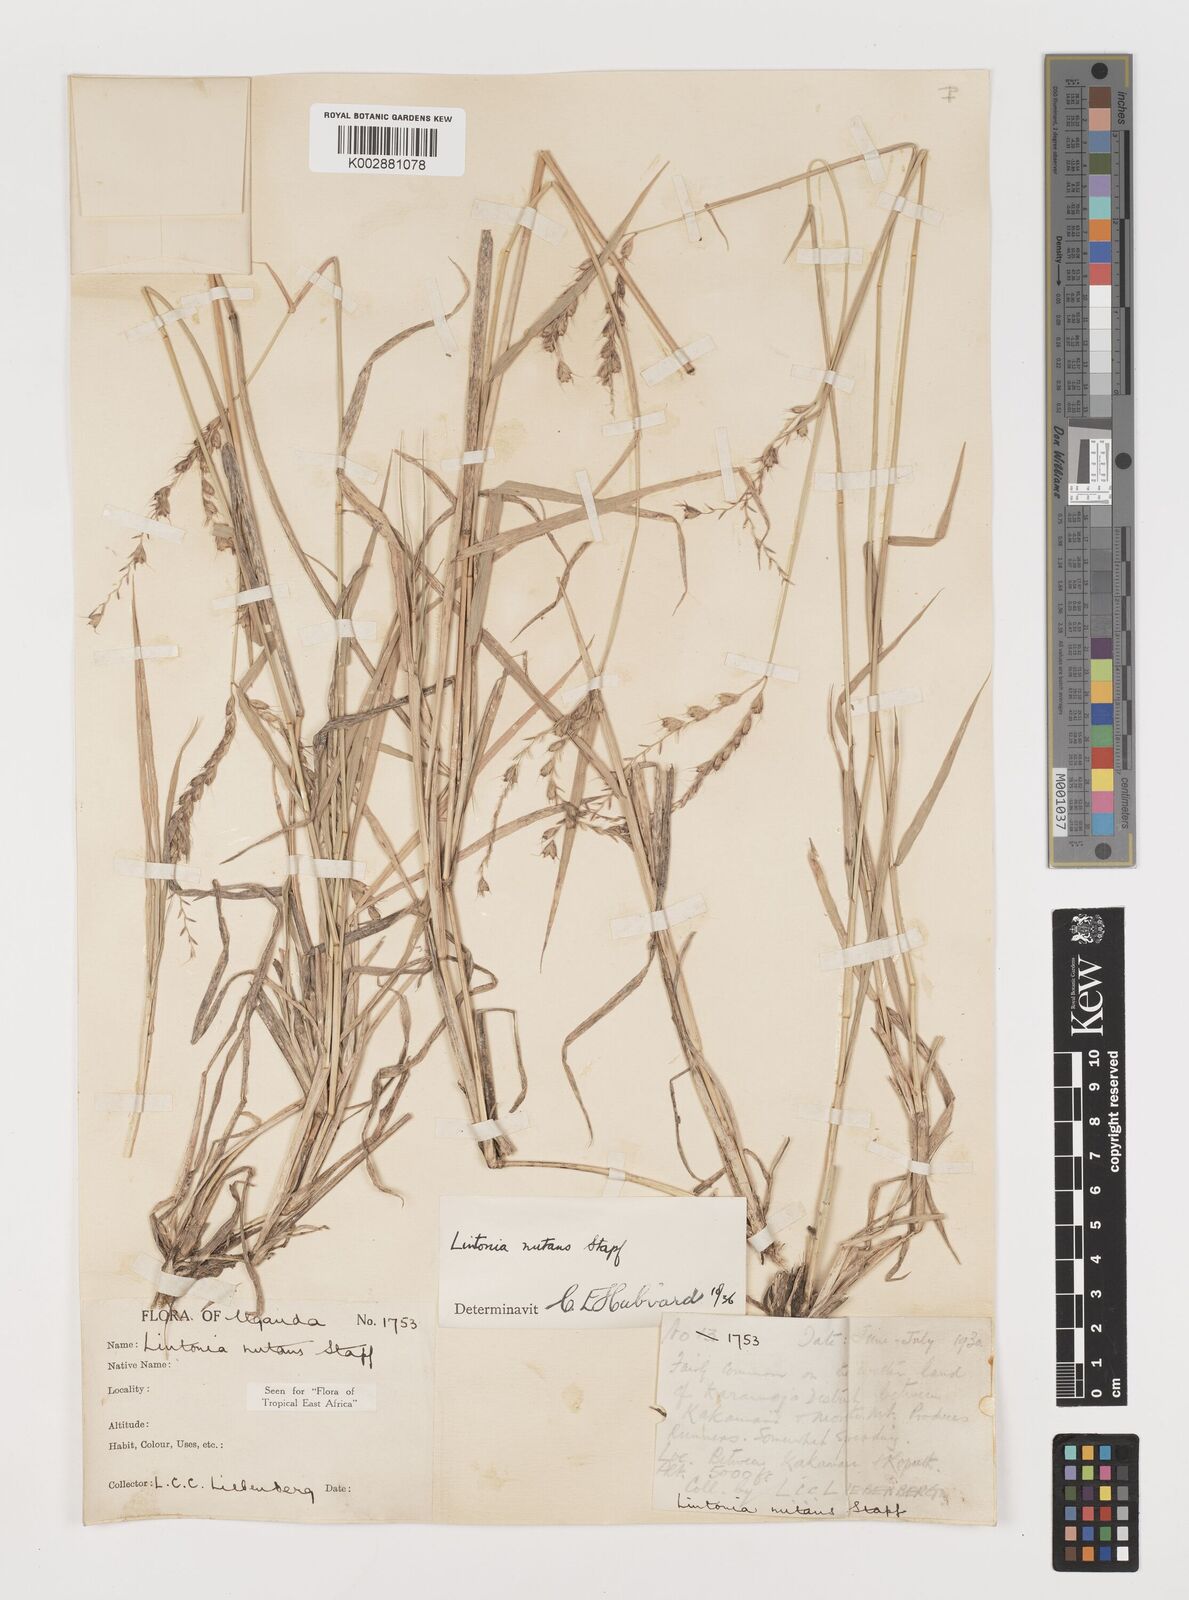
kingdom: Plantae
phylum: Tracheophyta
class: Liliopsida
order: Poales
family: Poaceae
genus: Chloris
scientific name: Chloris nutans
